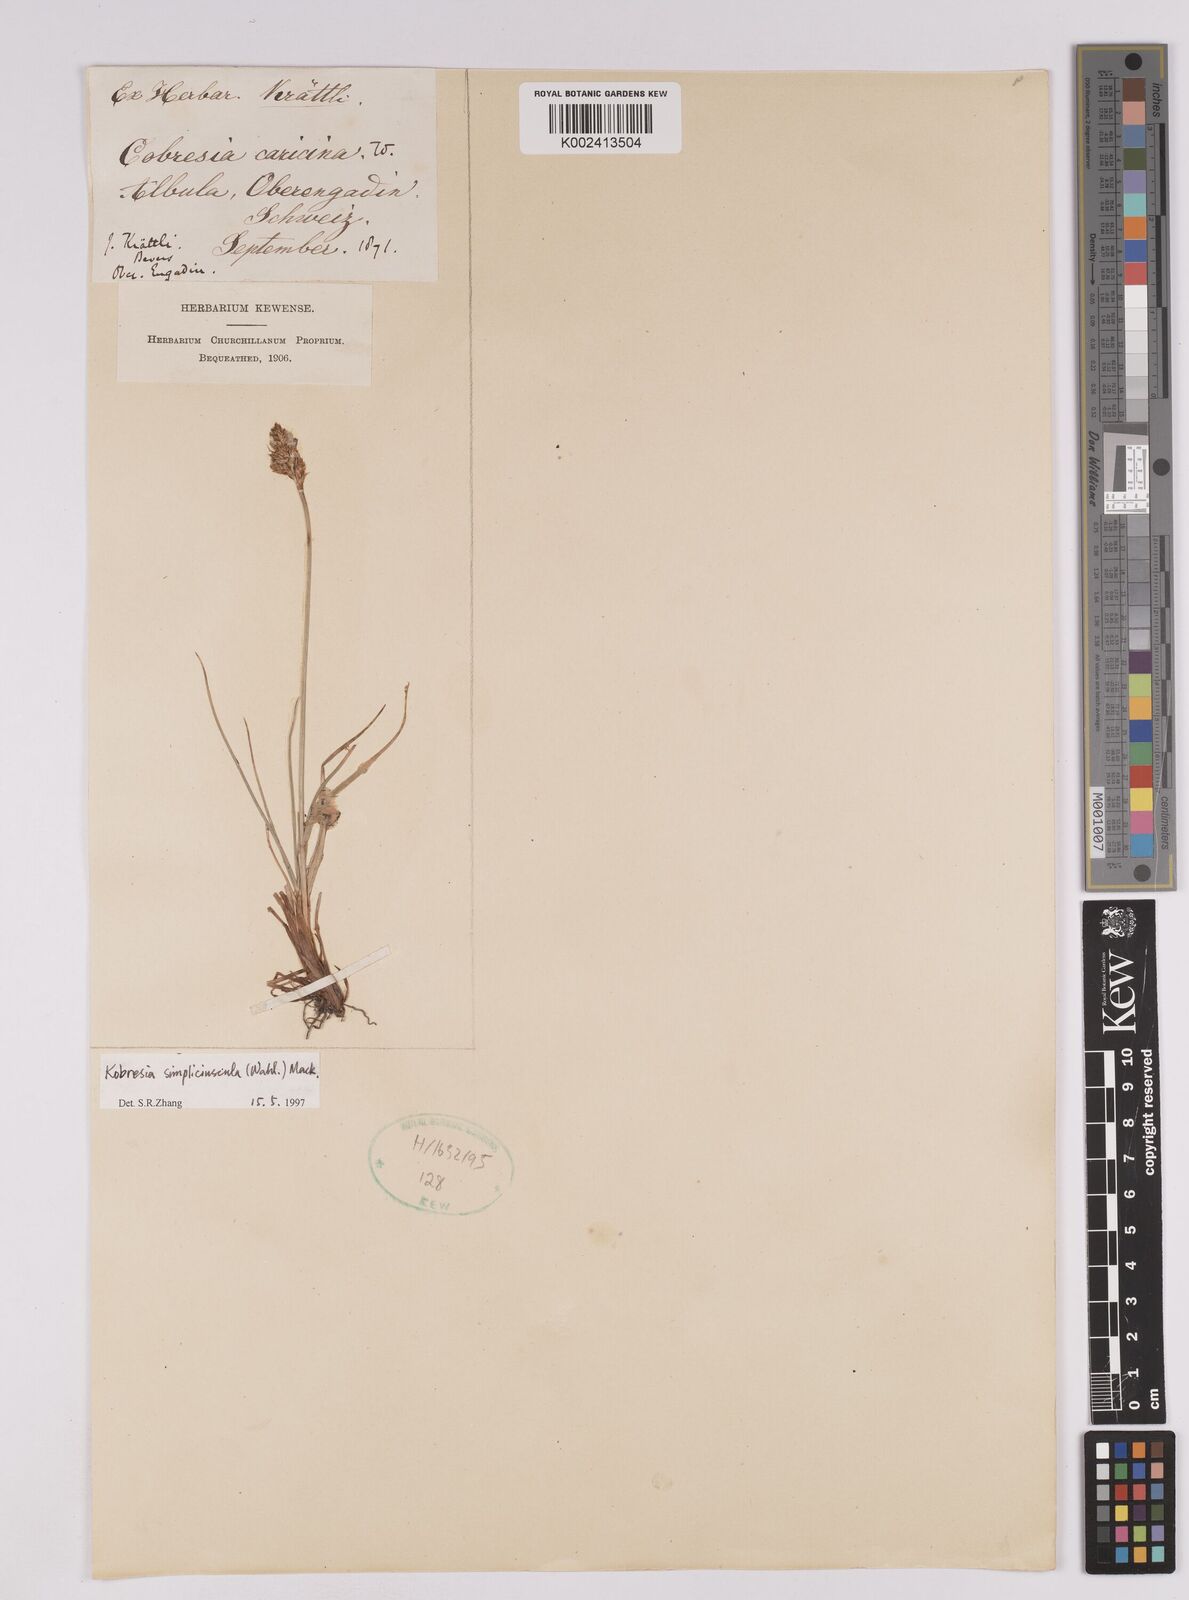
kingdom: Plantae
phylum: Tracheophyta
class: Liliopsida
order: Poales
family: Cyperaceae
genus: Carex
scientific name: Carex simpliciuscula
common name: Simple bog sedge
